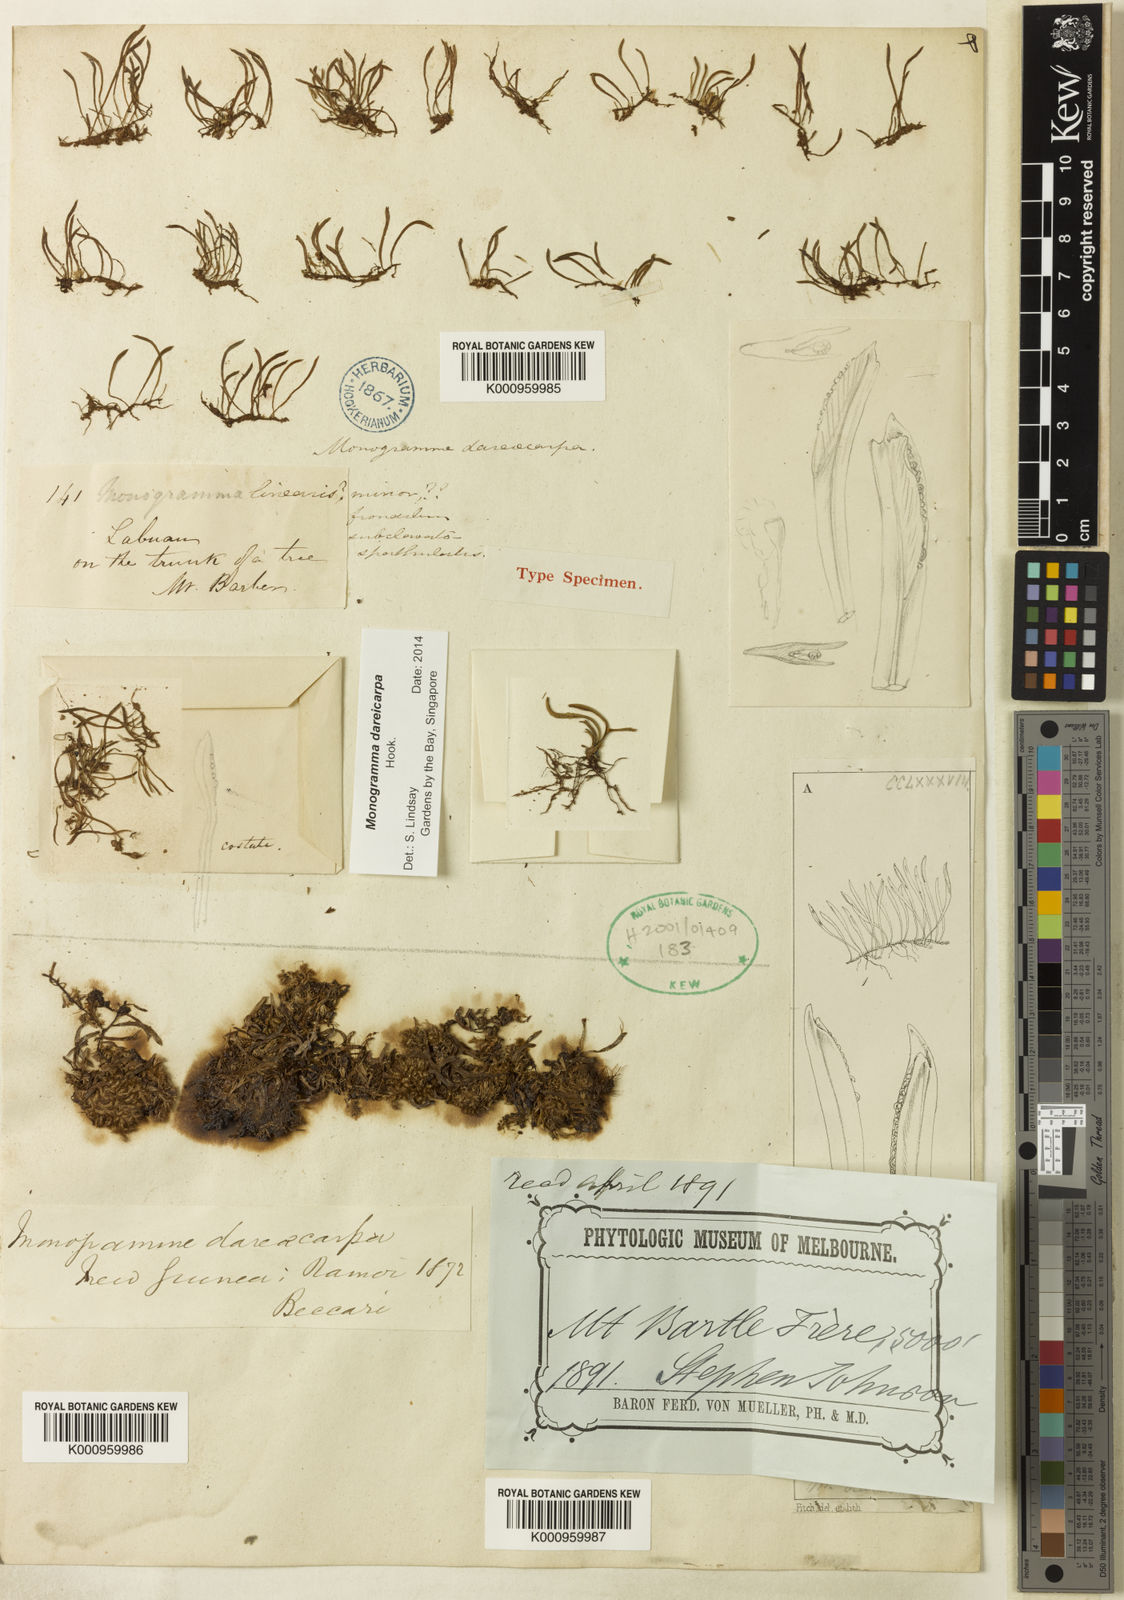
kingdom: Plantae
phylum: Tracheophyta
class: Polypodiopsida
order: Polypodiales
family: Pteridaceae
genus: Haplopteris
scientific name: Haplopteris dareicarpa
